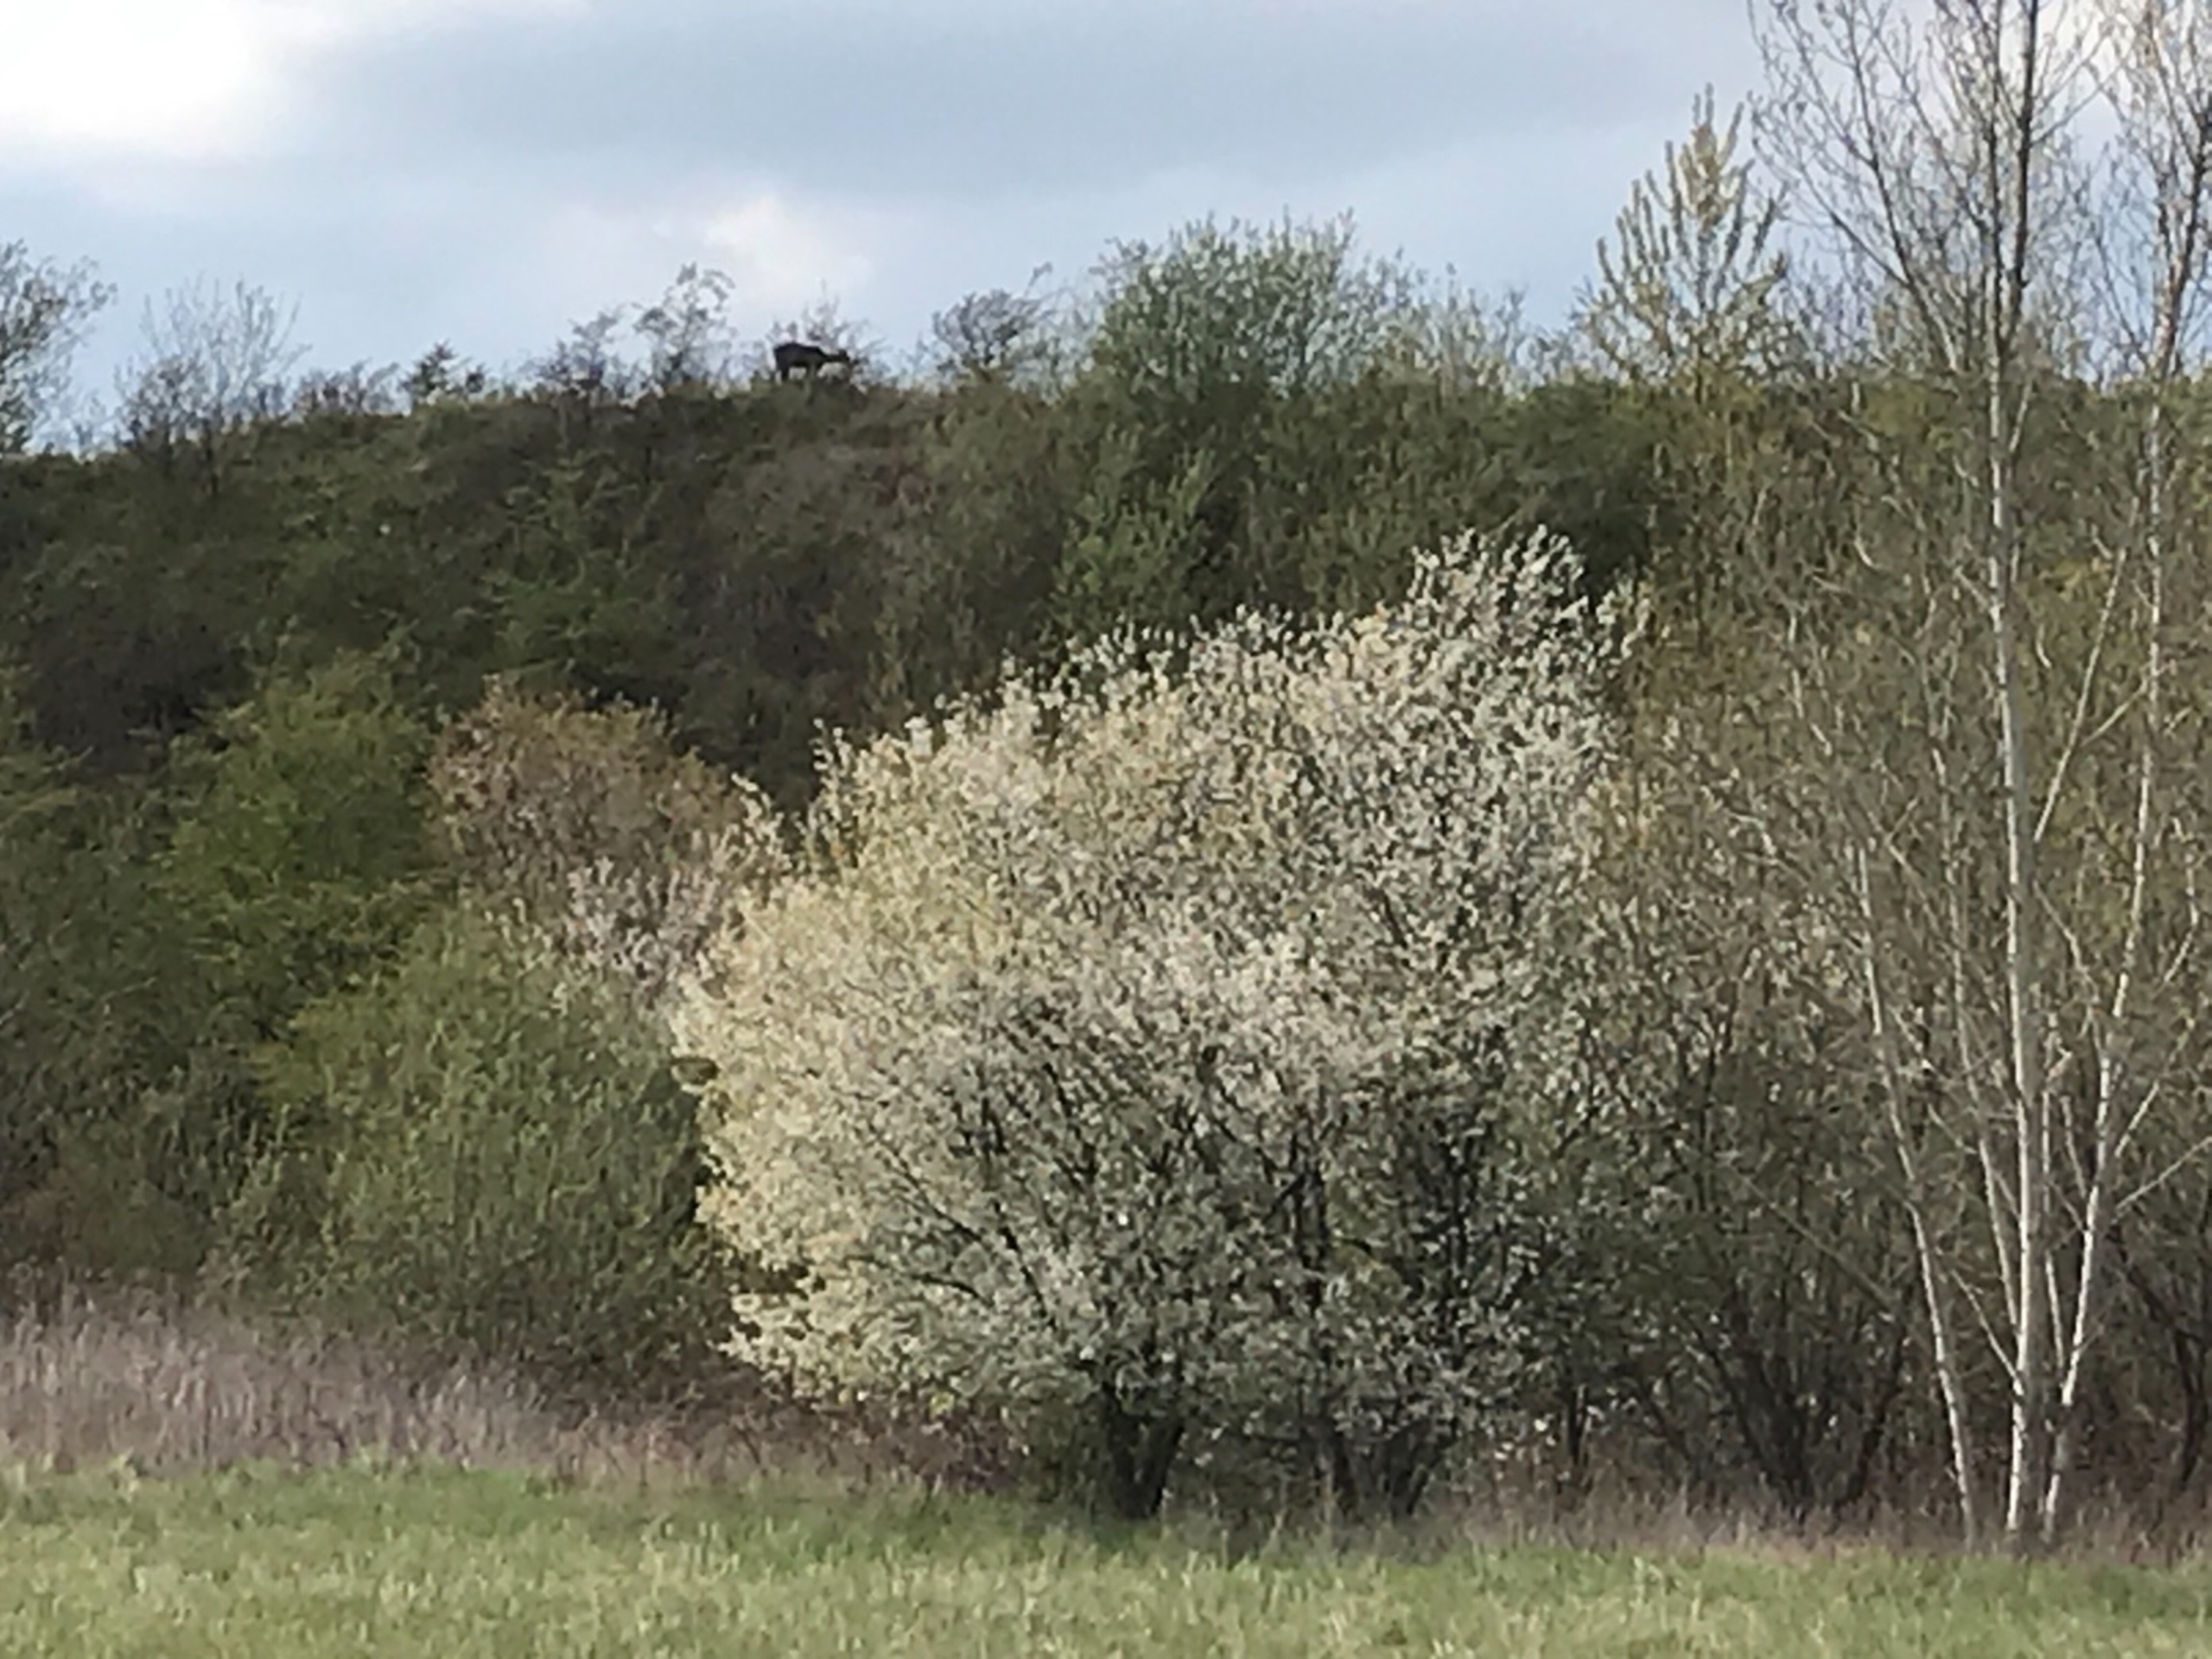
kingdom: Animalia
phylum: Chordata
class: Mammalia
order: Artiodactyla
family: Cervidae
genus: Capreolus
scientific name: Capreolus capreolus
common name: Rådyr
